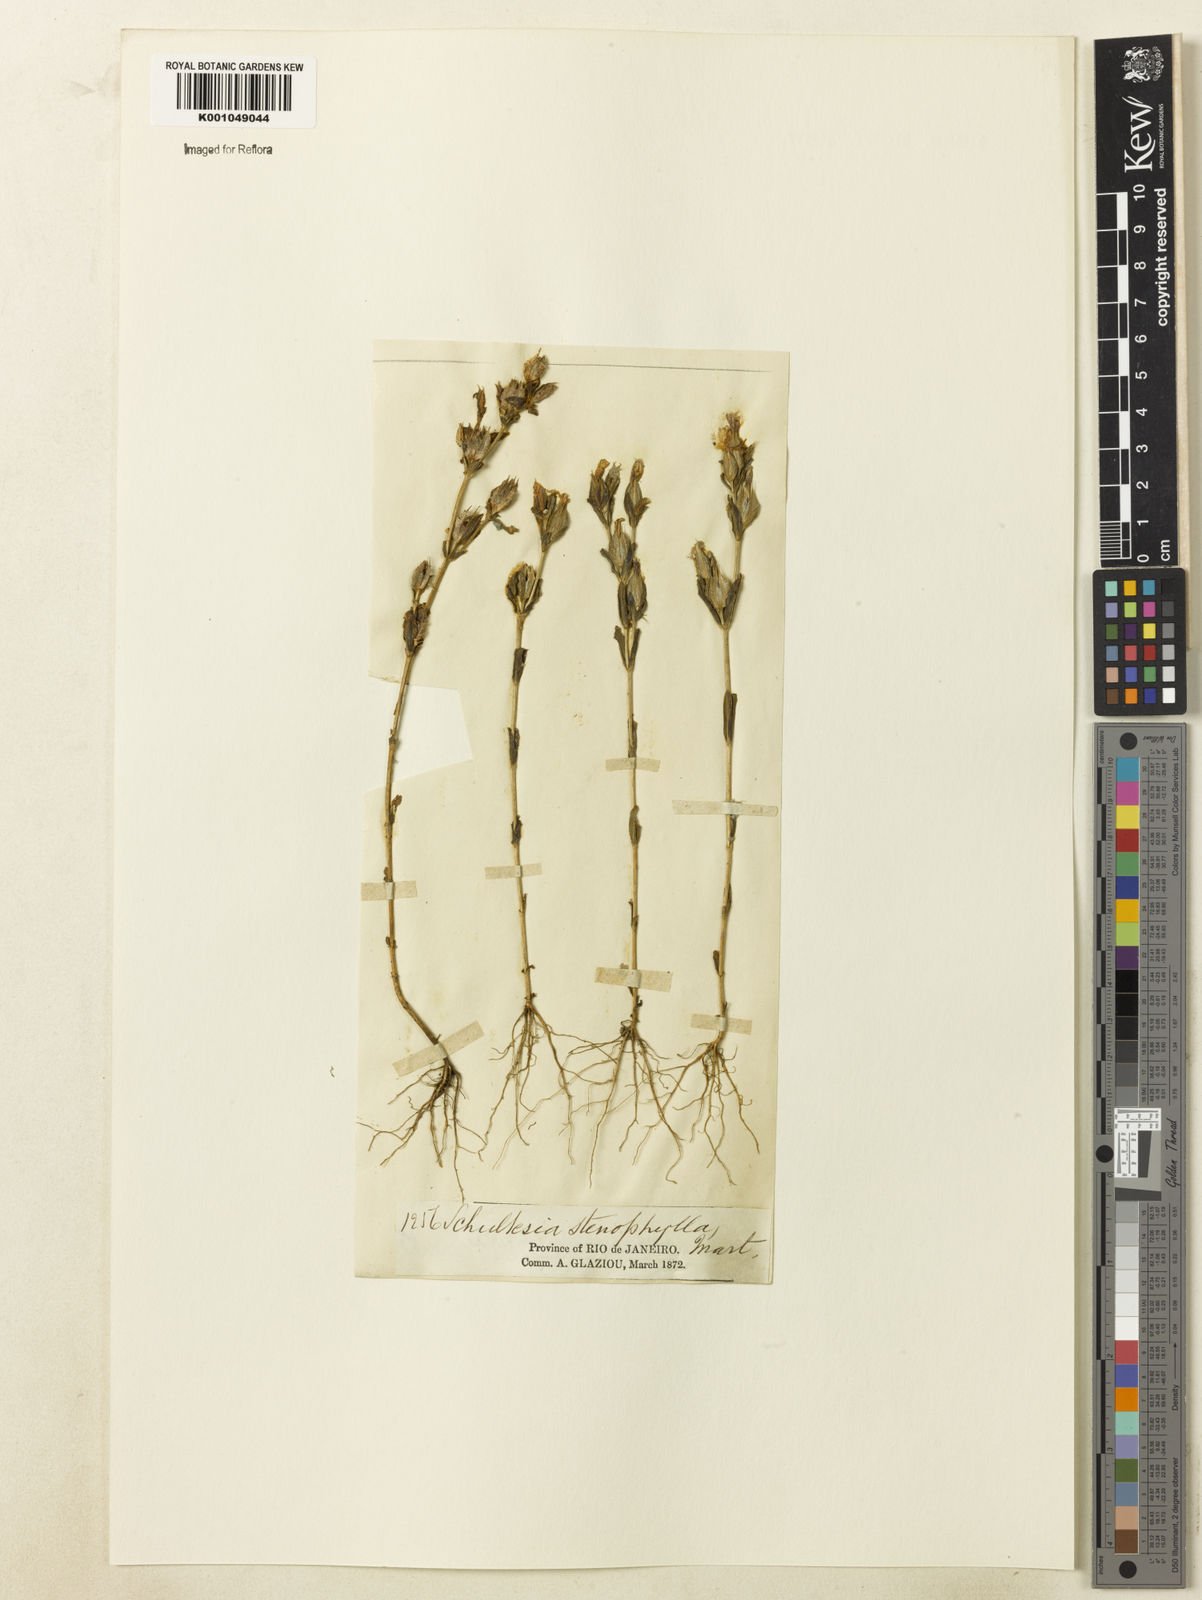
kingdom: Plantae
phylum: Tracheophyta
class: Magnoliopsida
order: Gentianales
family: Gentianaceae
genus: Schultesia
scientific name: Schultesia guianensis
